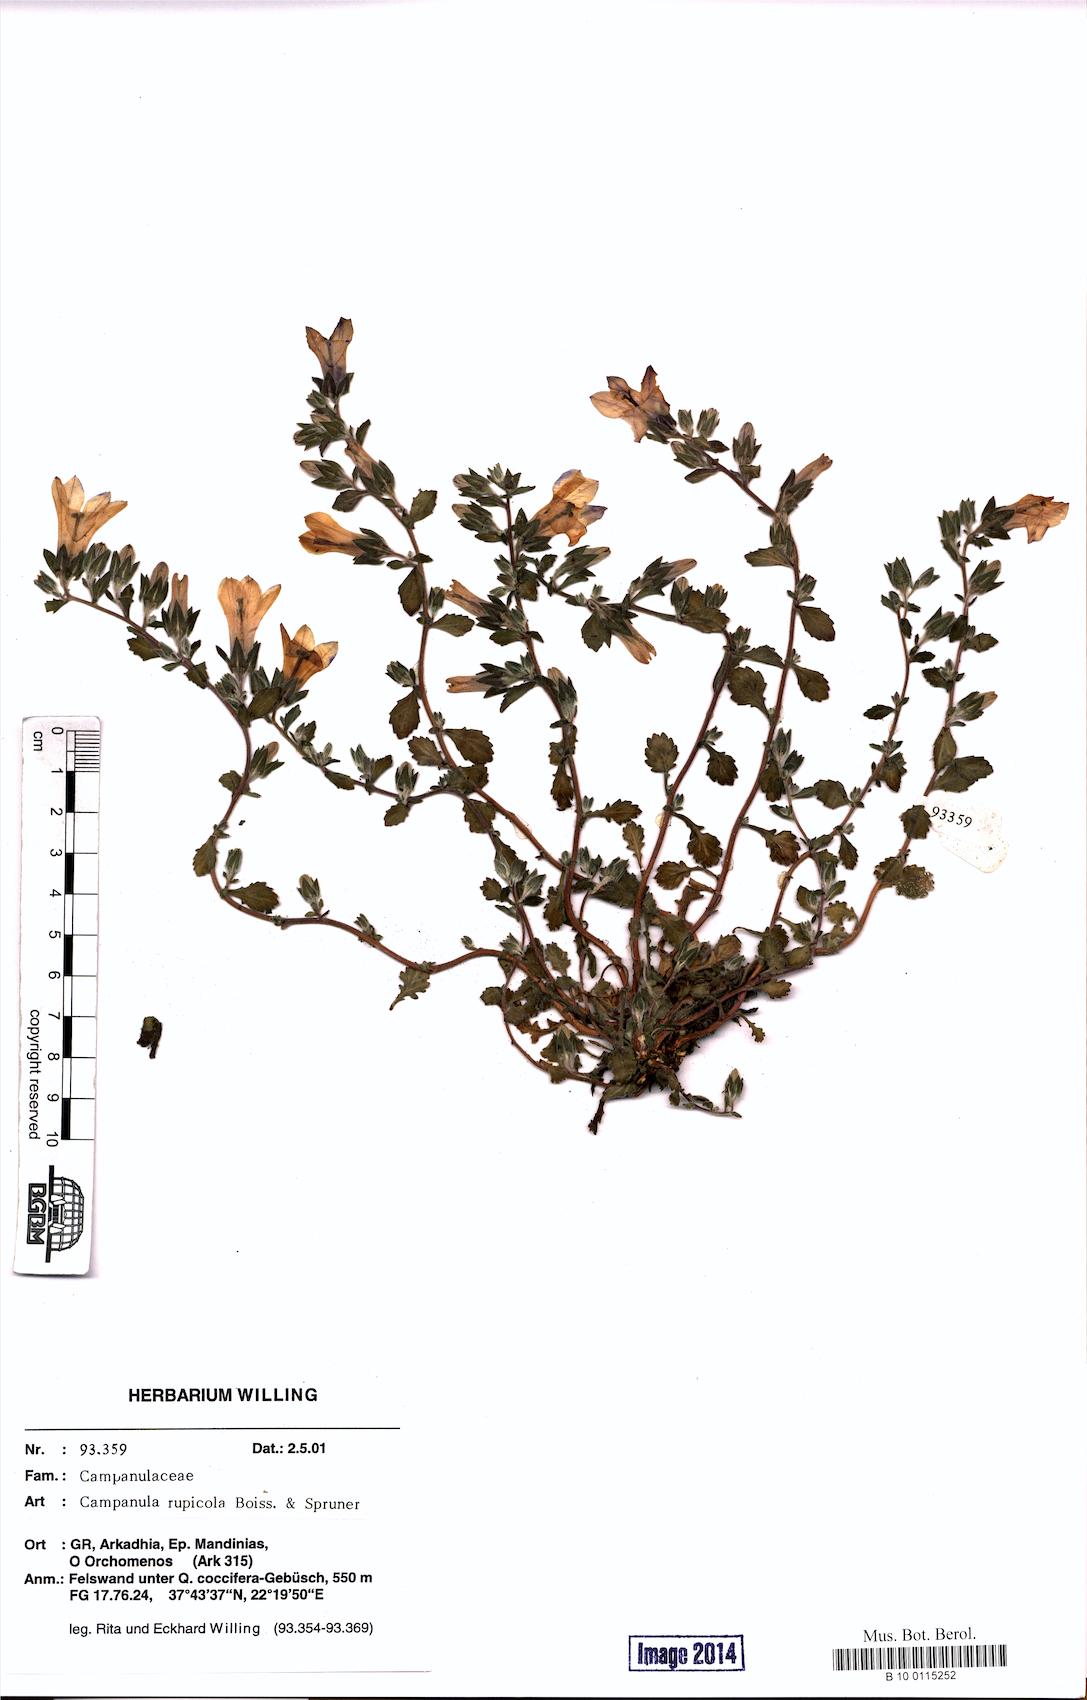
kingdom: Plantae
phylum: Tracheophyta
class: Magnoliopsida
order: Asterales
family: Campanulaceae
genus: Campanula
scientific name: Campanula rupicola
